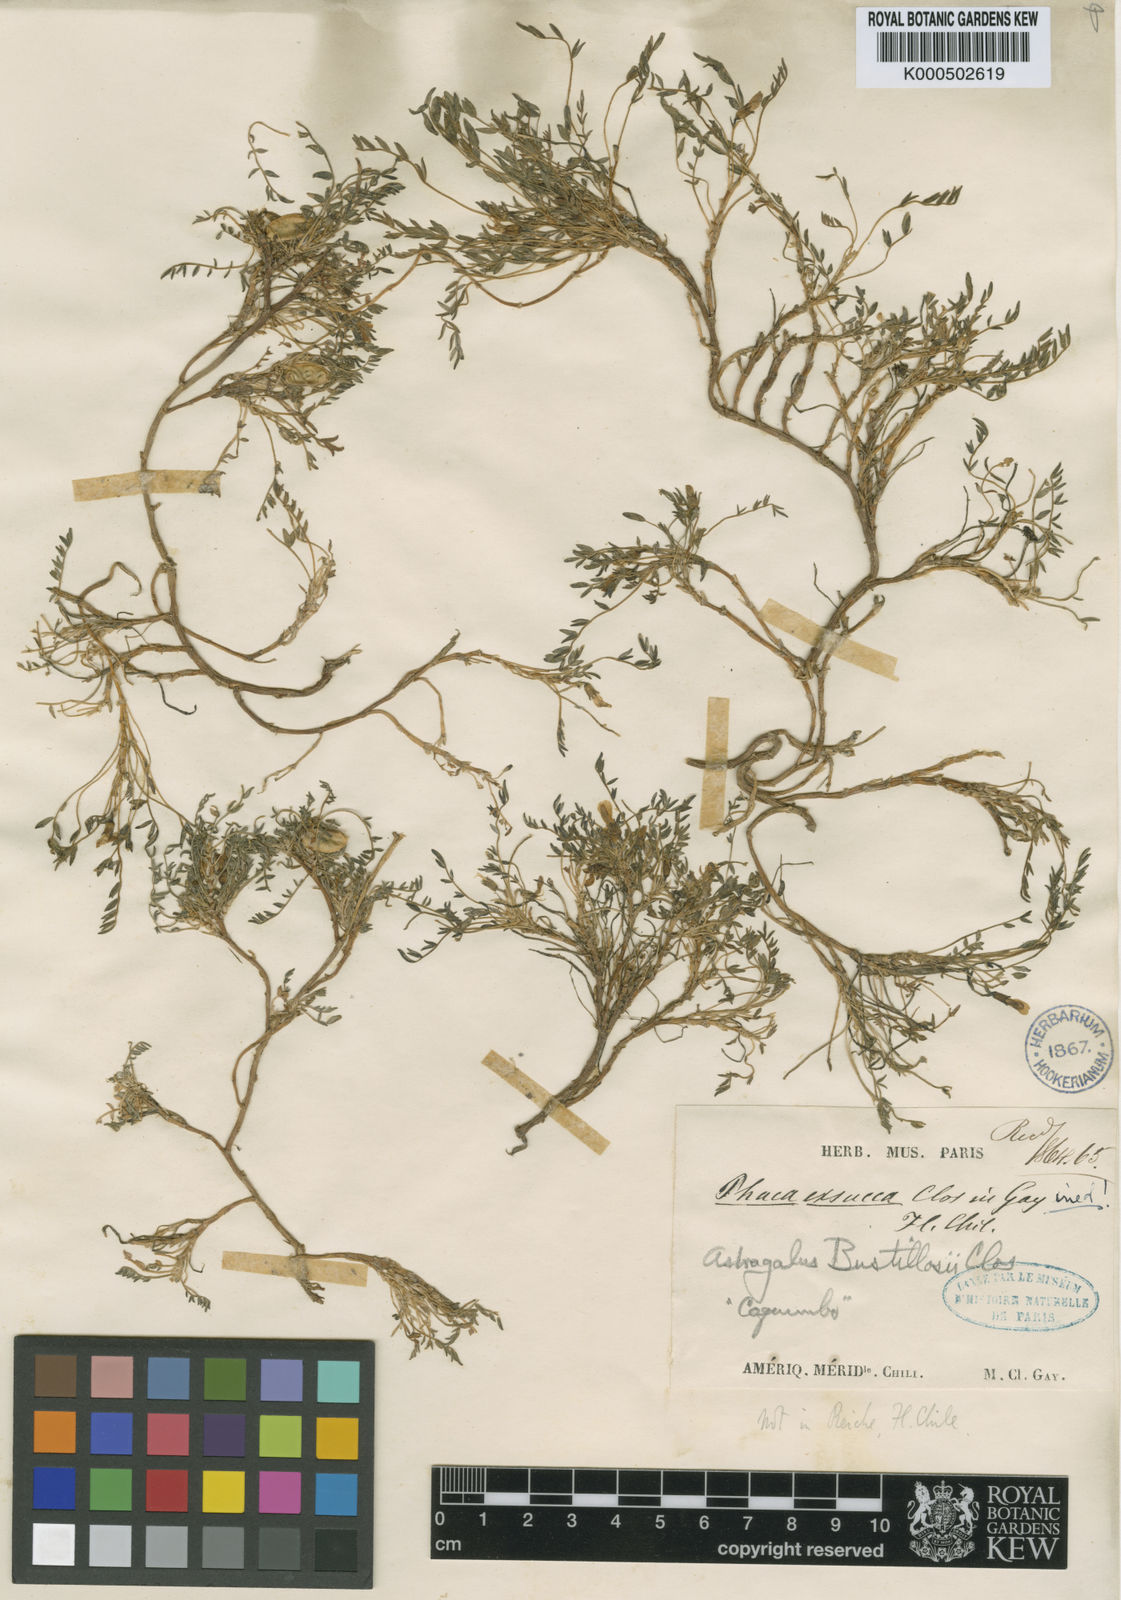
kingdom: Plantae
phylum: Tracheophyta
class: Magnoliopsida
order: Fabales
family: Fabaceae
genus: Astragalus
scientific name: Astragalus bustillosii
